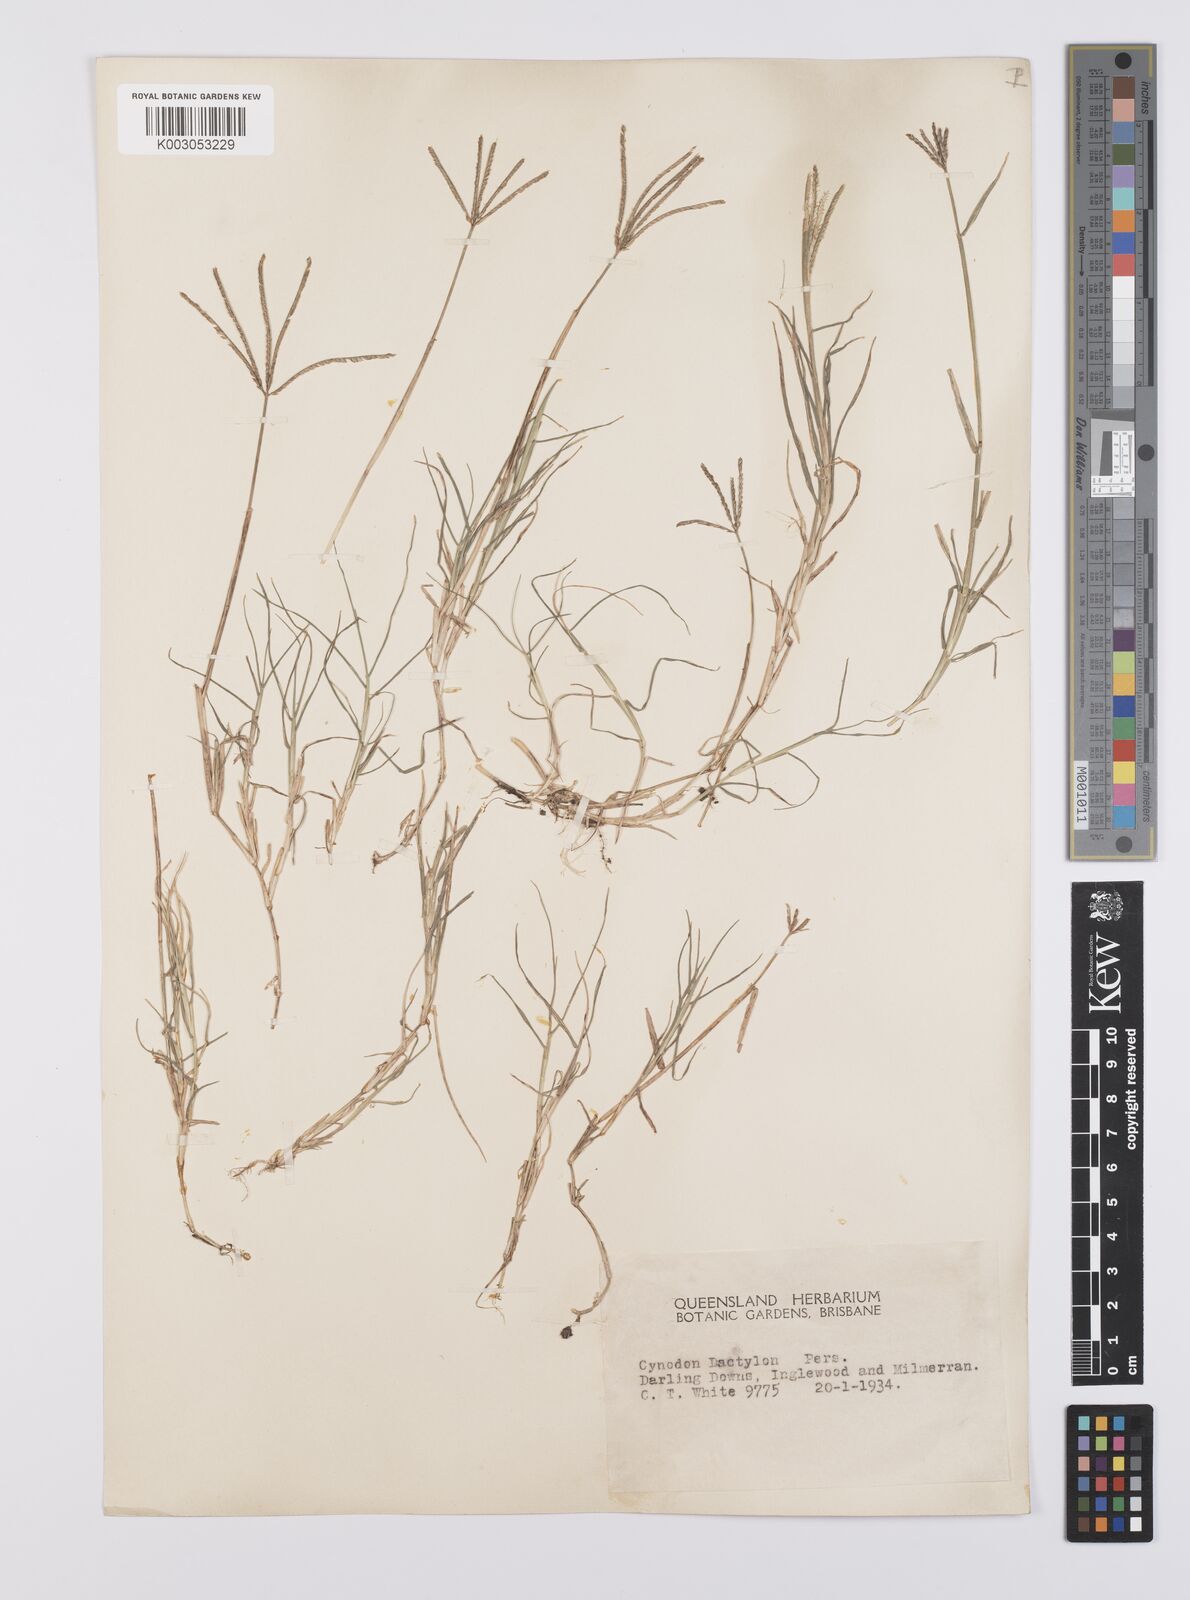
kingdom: Plantae
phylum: Tracheophyta
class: Liliopsida
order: Poales
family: Poaceae
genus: Cynodon
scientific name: Cynodon dactylon
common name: Bermuda grass
